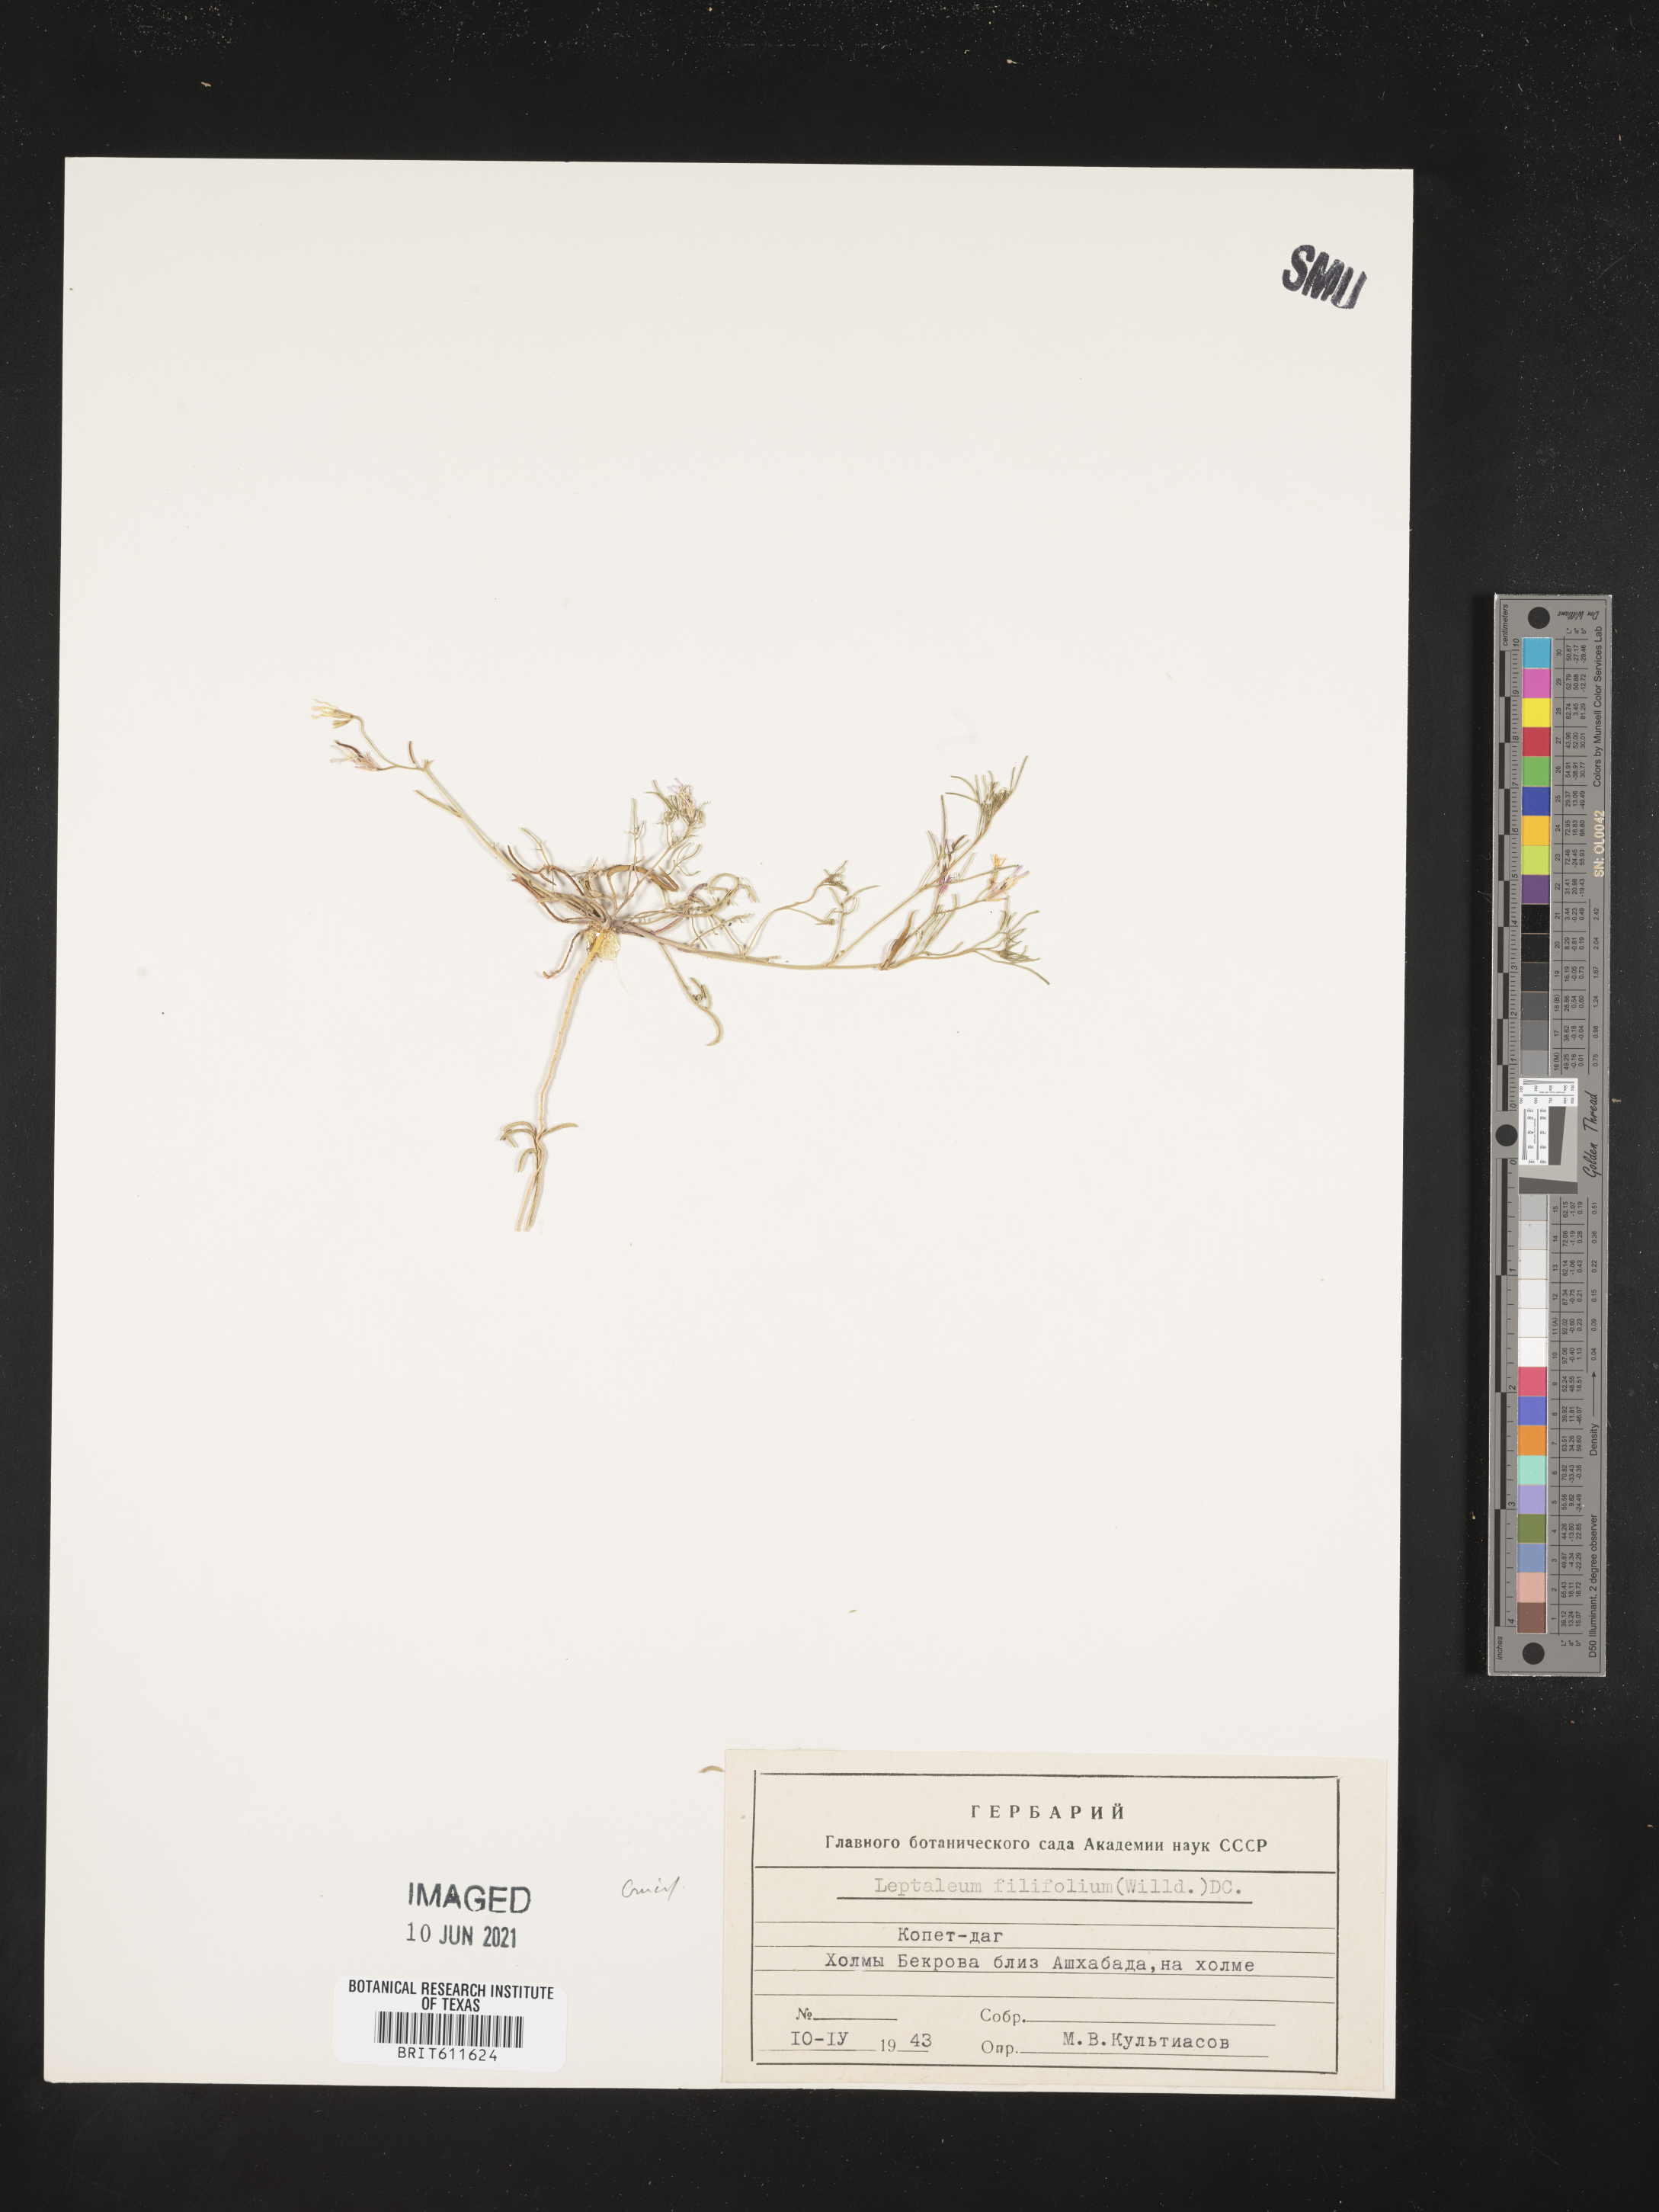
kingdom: Plantae
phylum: Tracheophyta
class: Magnoliopsida
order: Brassicales
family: Brassicaceae
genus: Leptaleum
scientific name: Leptaleum filifolium
